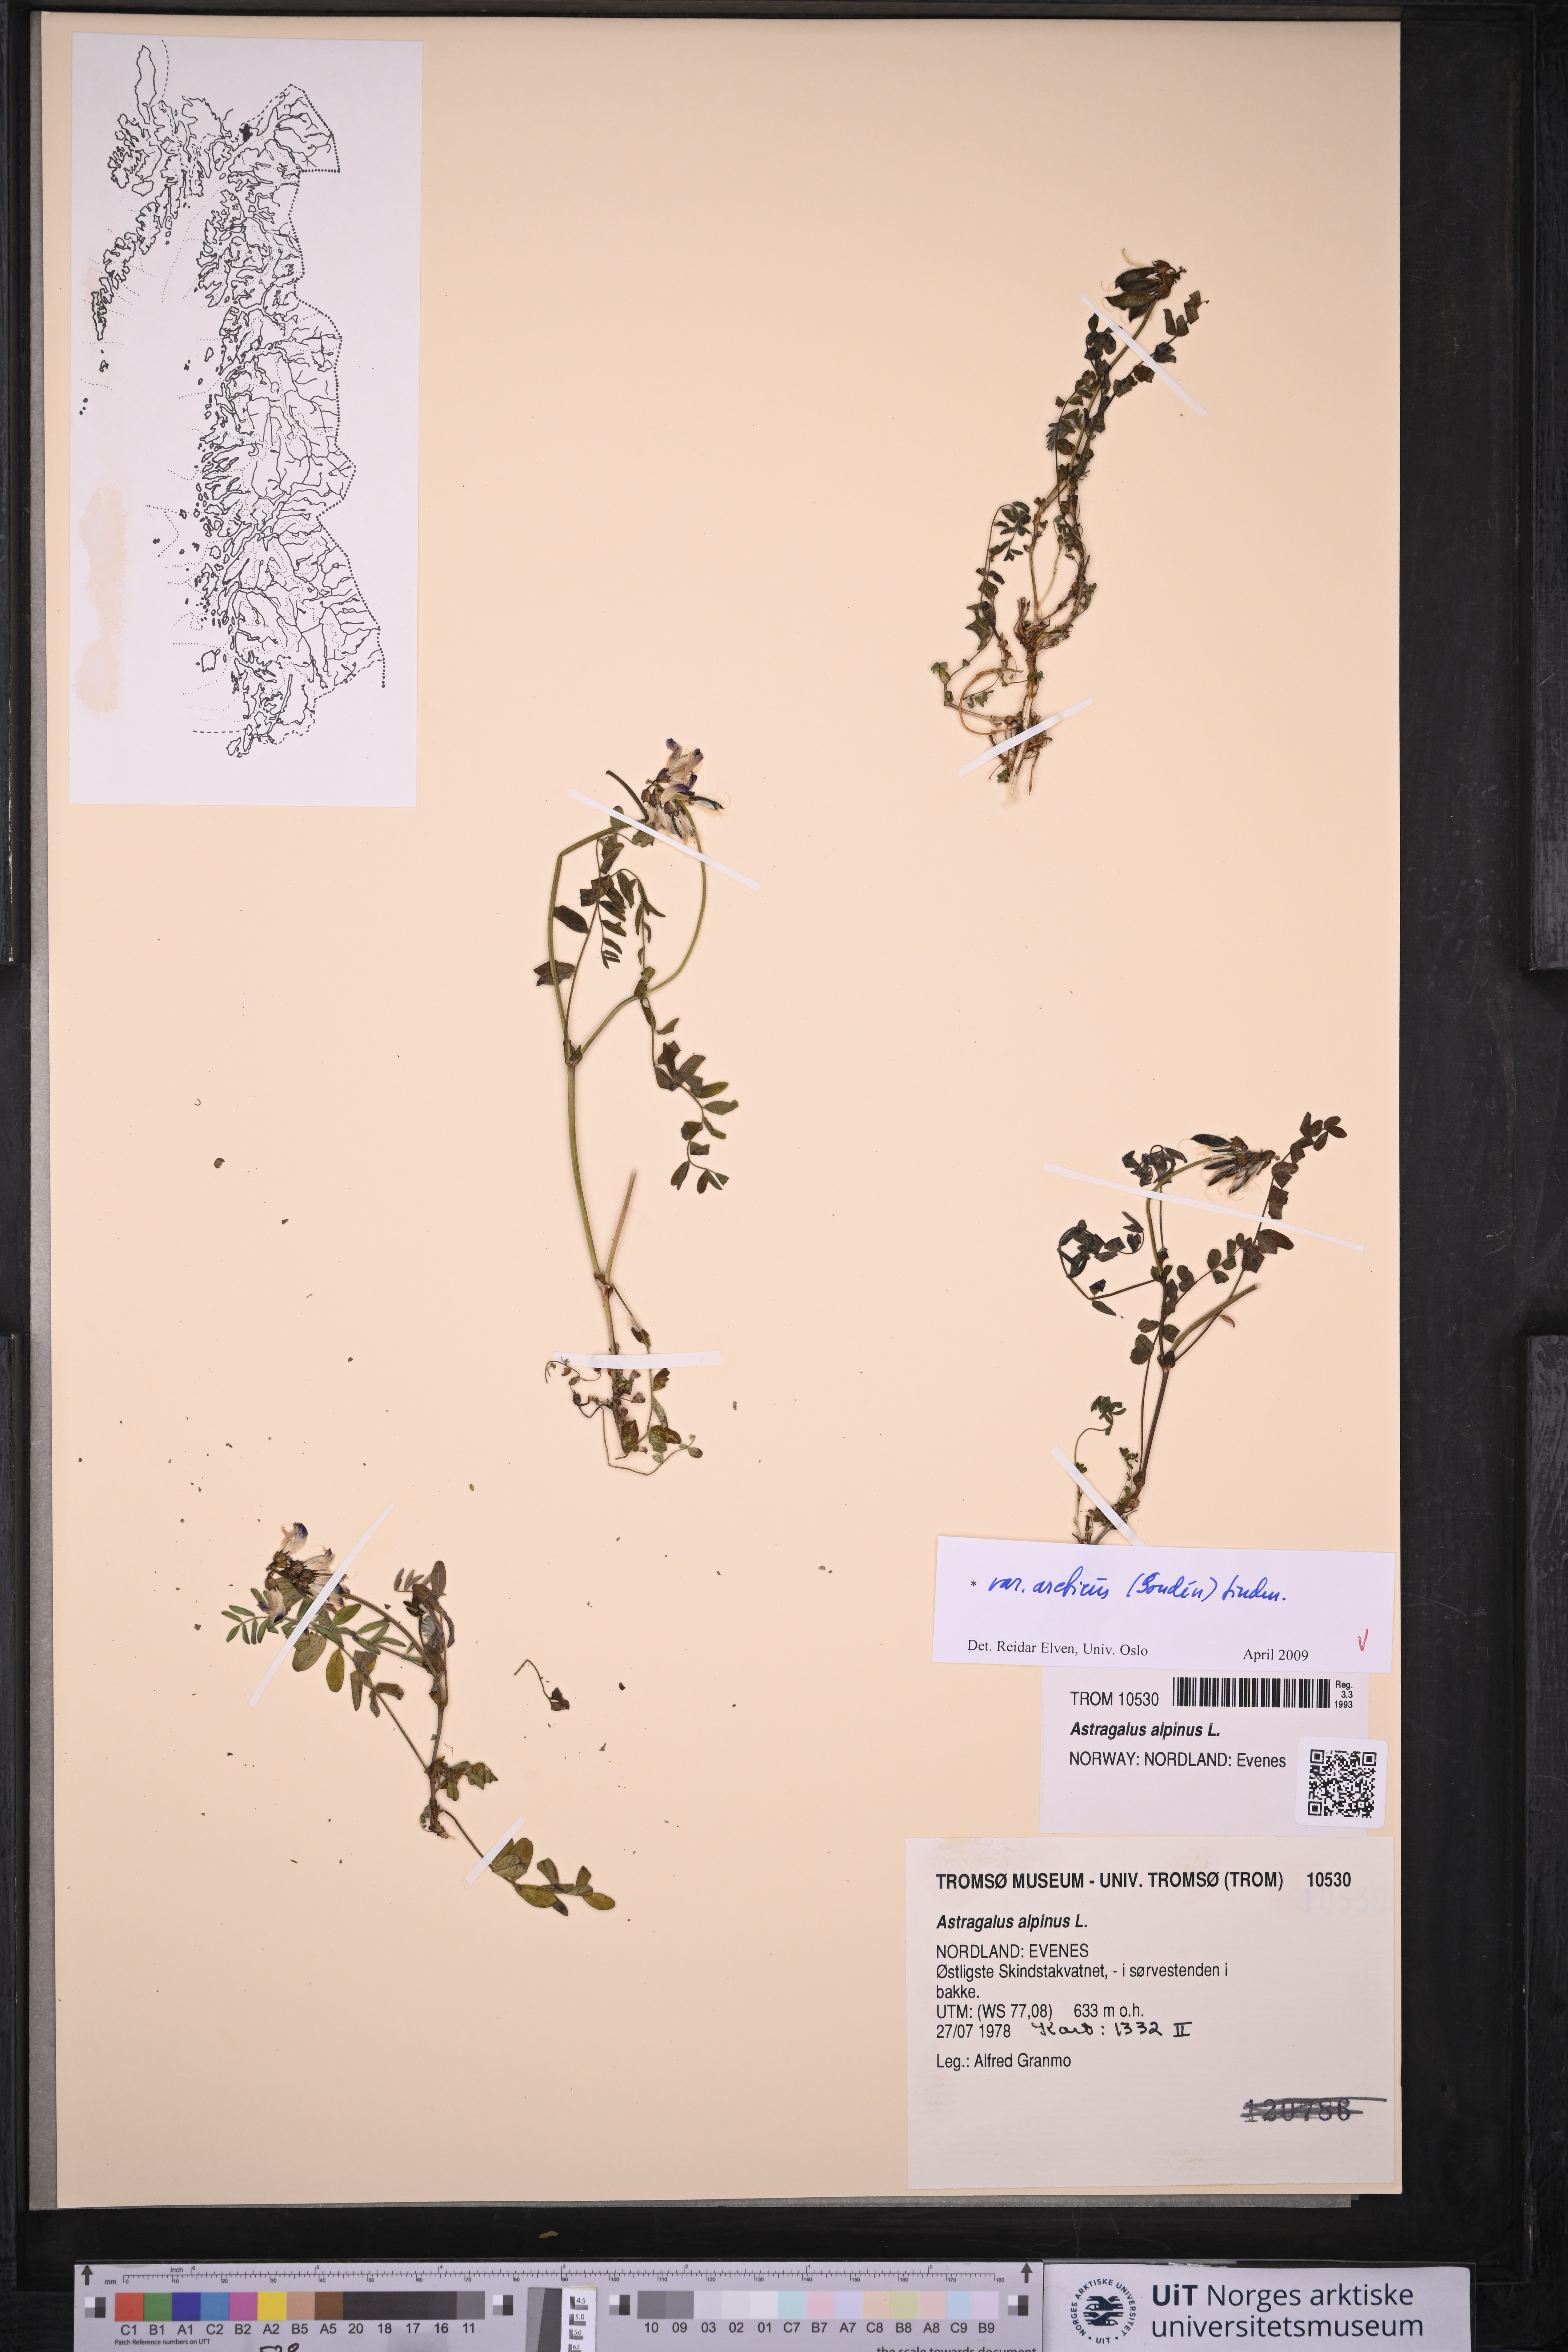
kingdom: Plantae
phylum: Tracheophyta
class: Magnoliopsida
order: Fabales
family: Fabaceae
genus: Astragalus
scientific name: Astragalus norvegicus
